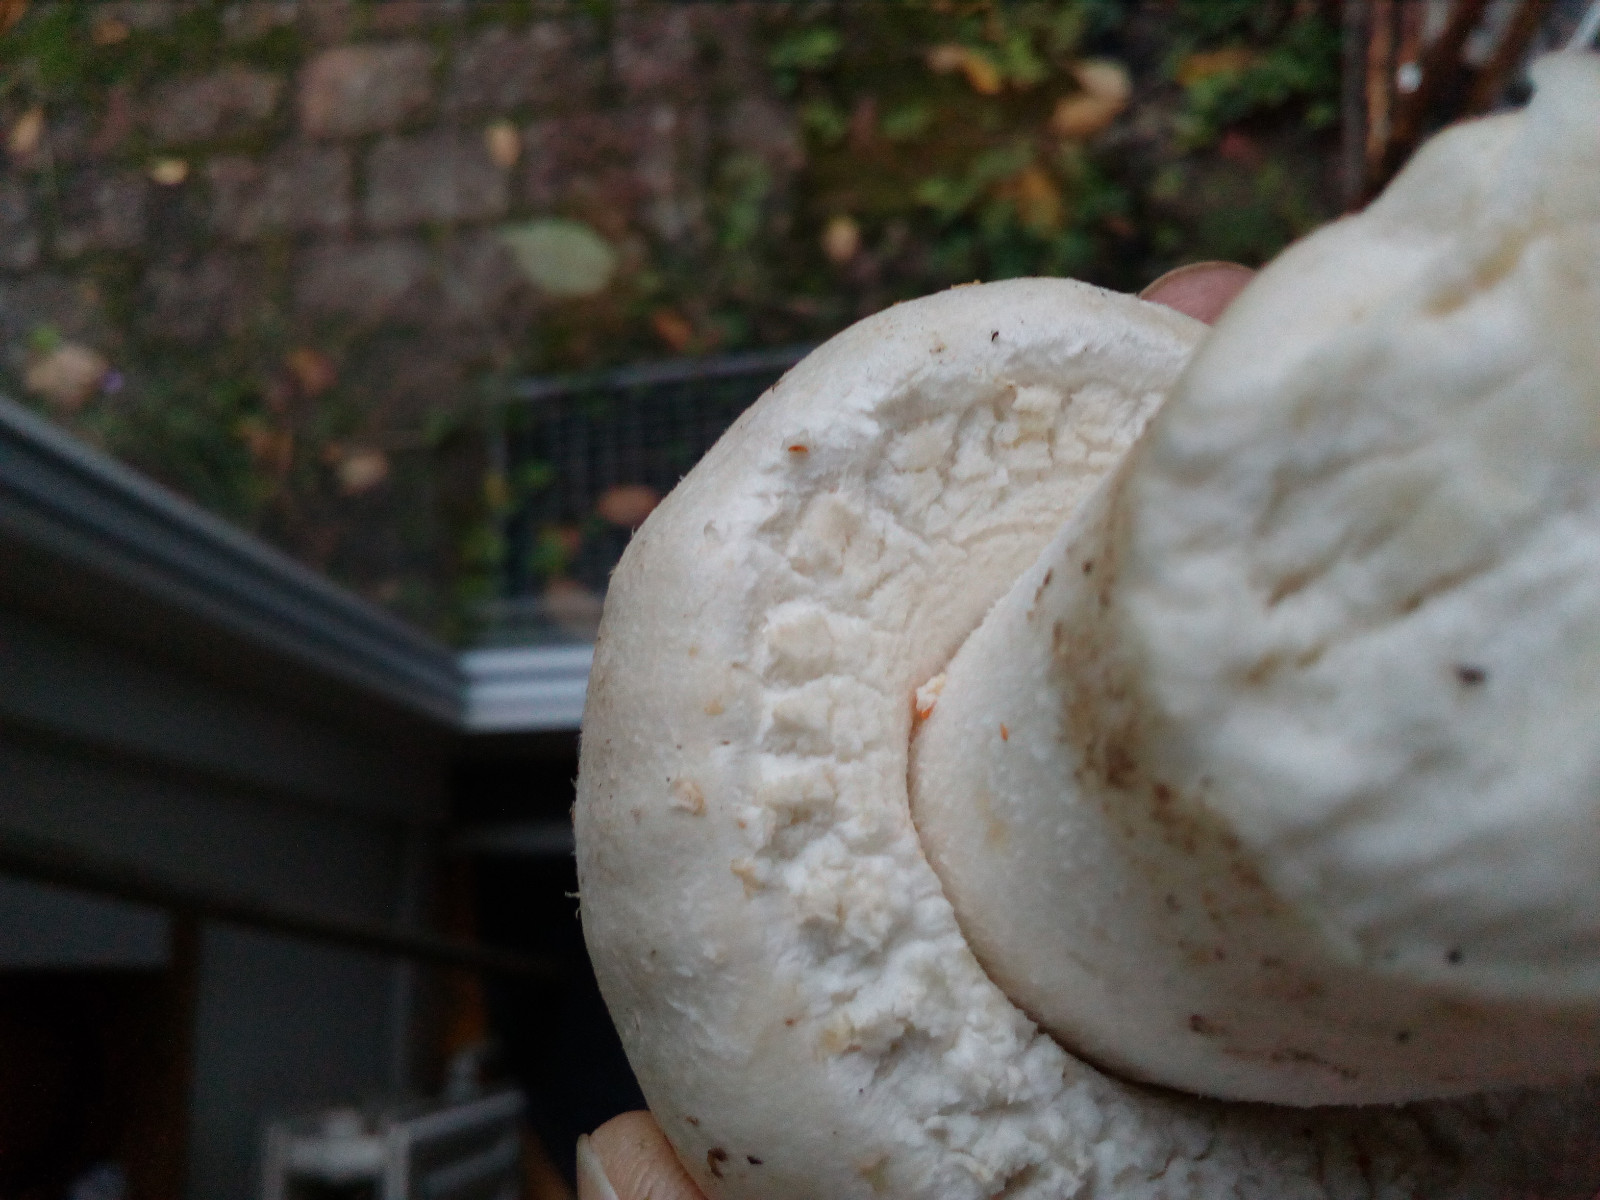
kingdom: Fungi
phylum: Basidiomycota
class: Agaricomycetes
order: Agaricales
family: Agaricaceae
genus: Agaricus
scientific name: Agaricus arvensis
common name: ager-champignon
